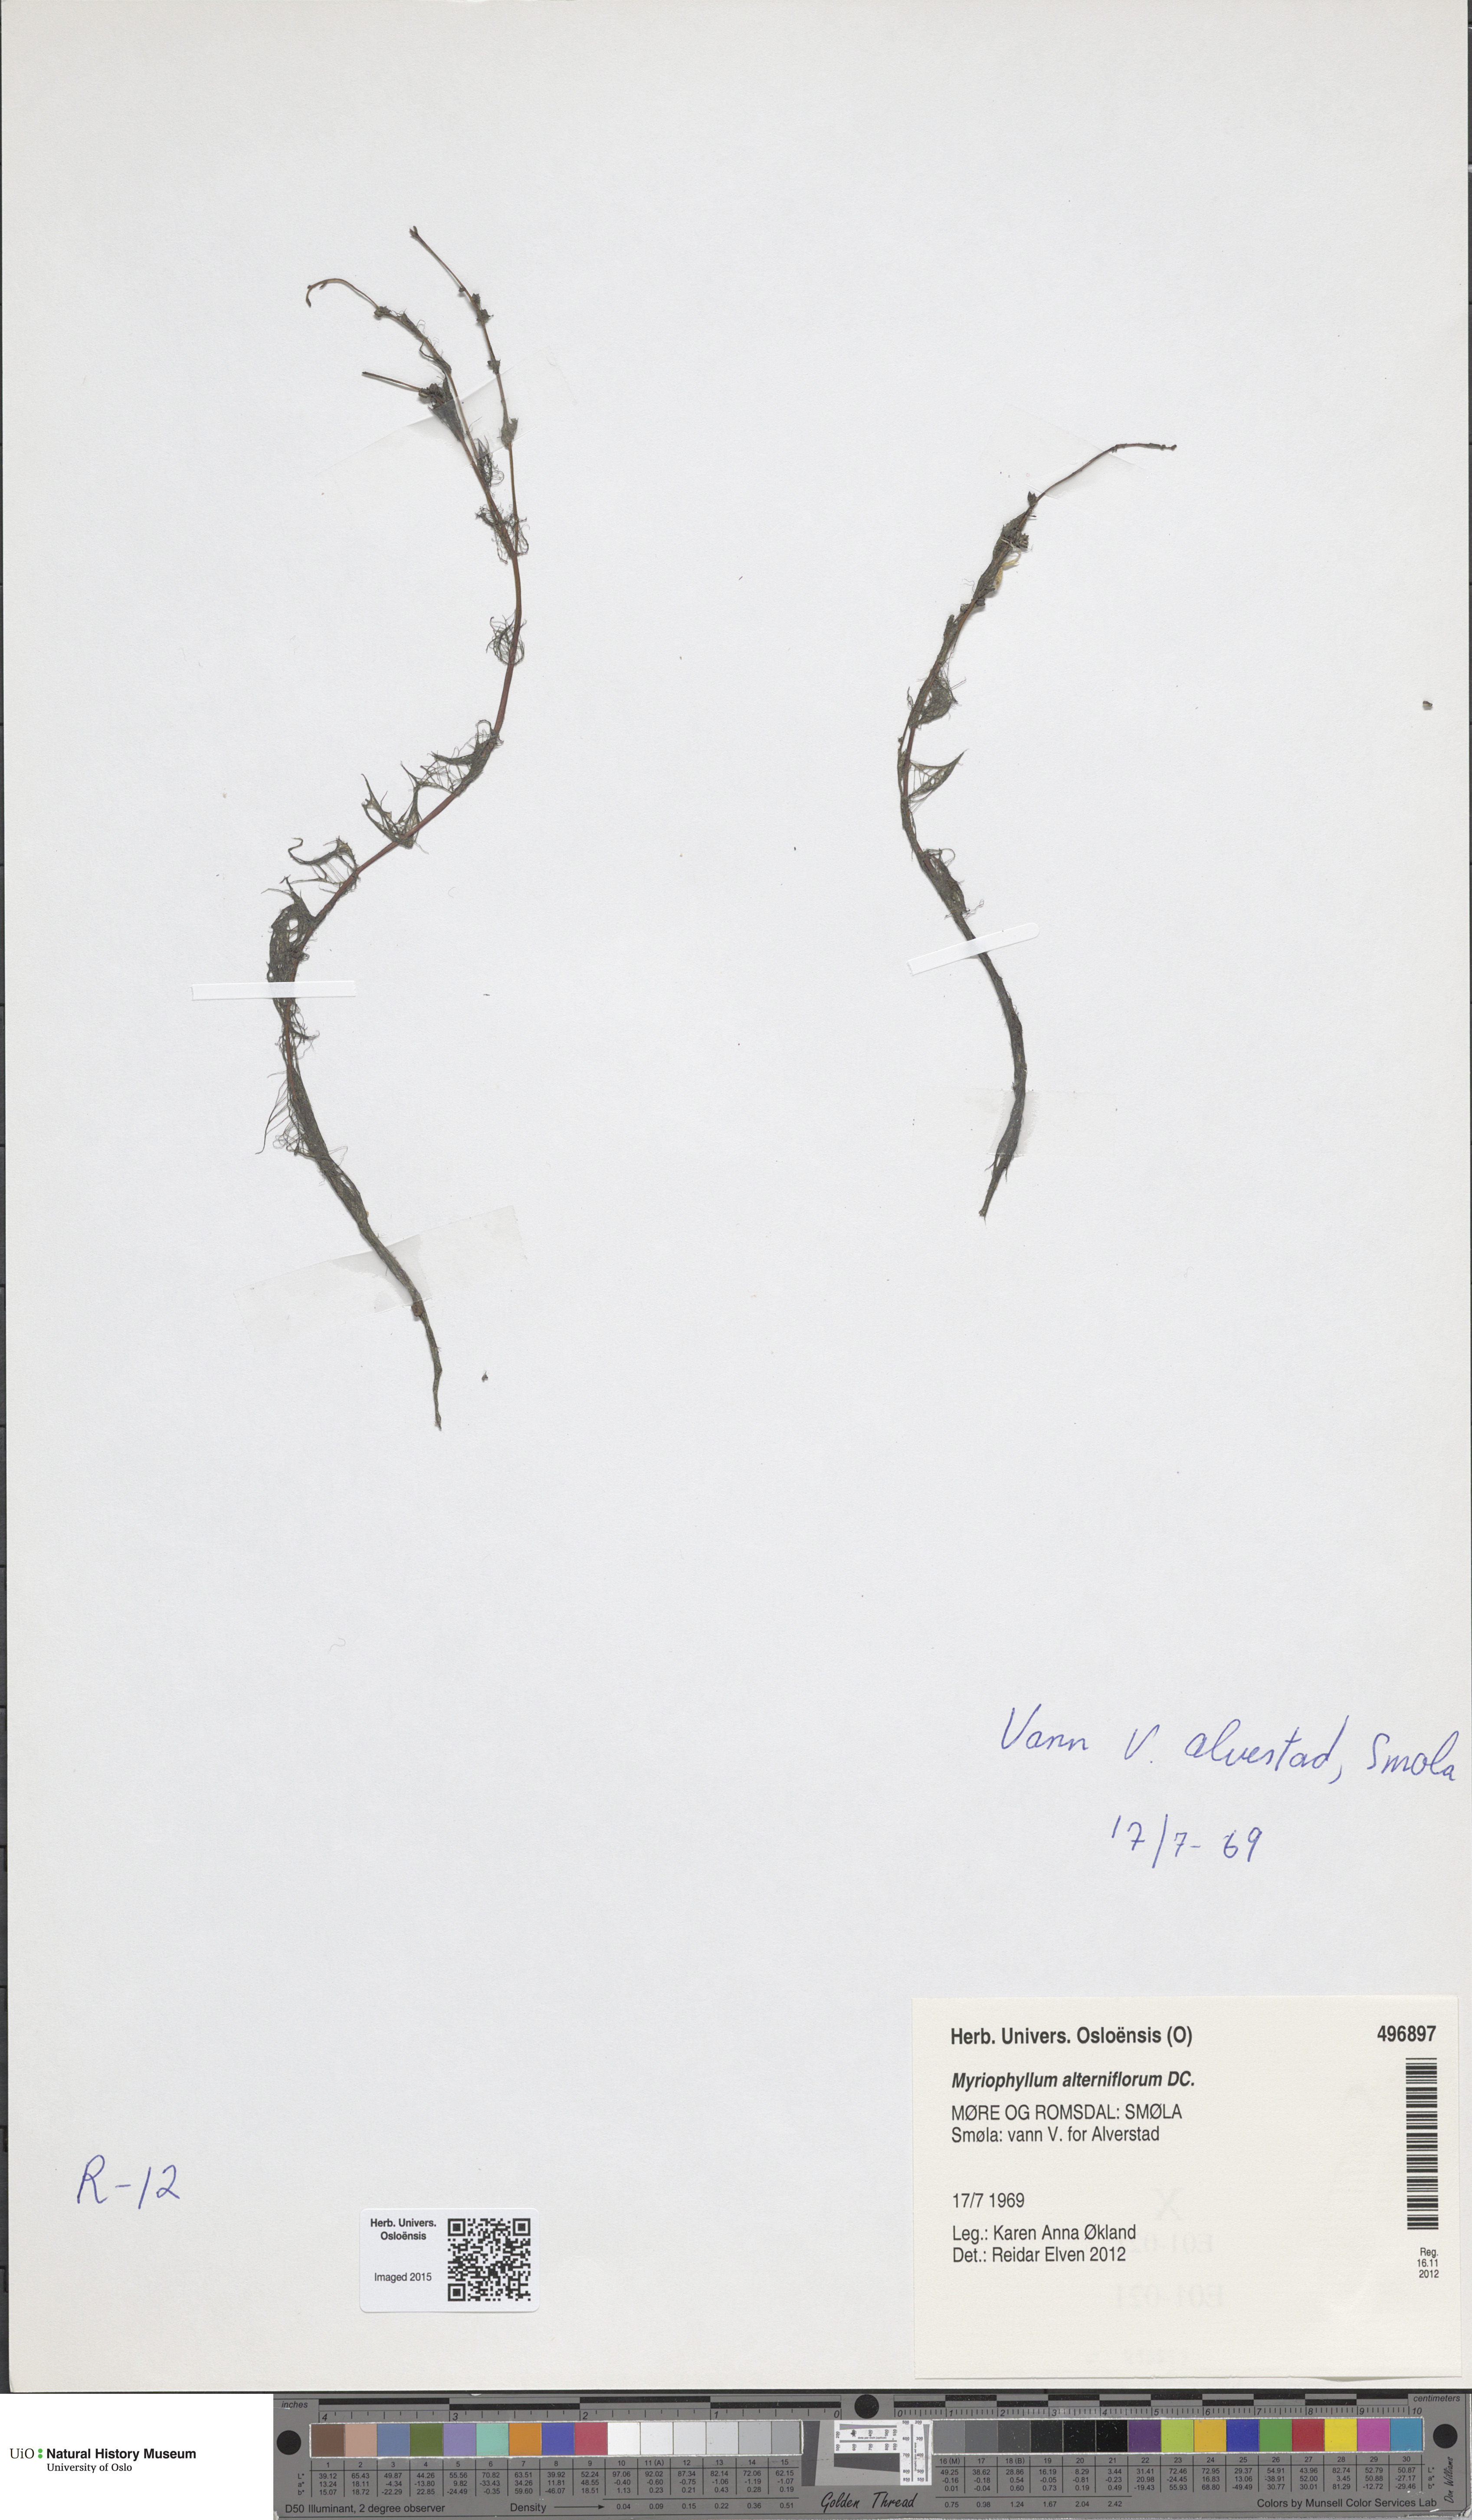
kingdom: Plantae
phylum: Tracheophyta
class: Magnoliopsida
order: Saxifragales
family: Haloragaceae
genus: Myriophyllum
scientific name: Myriophyllum alterniflorum
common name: Alternate water-milfoil
